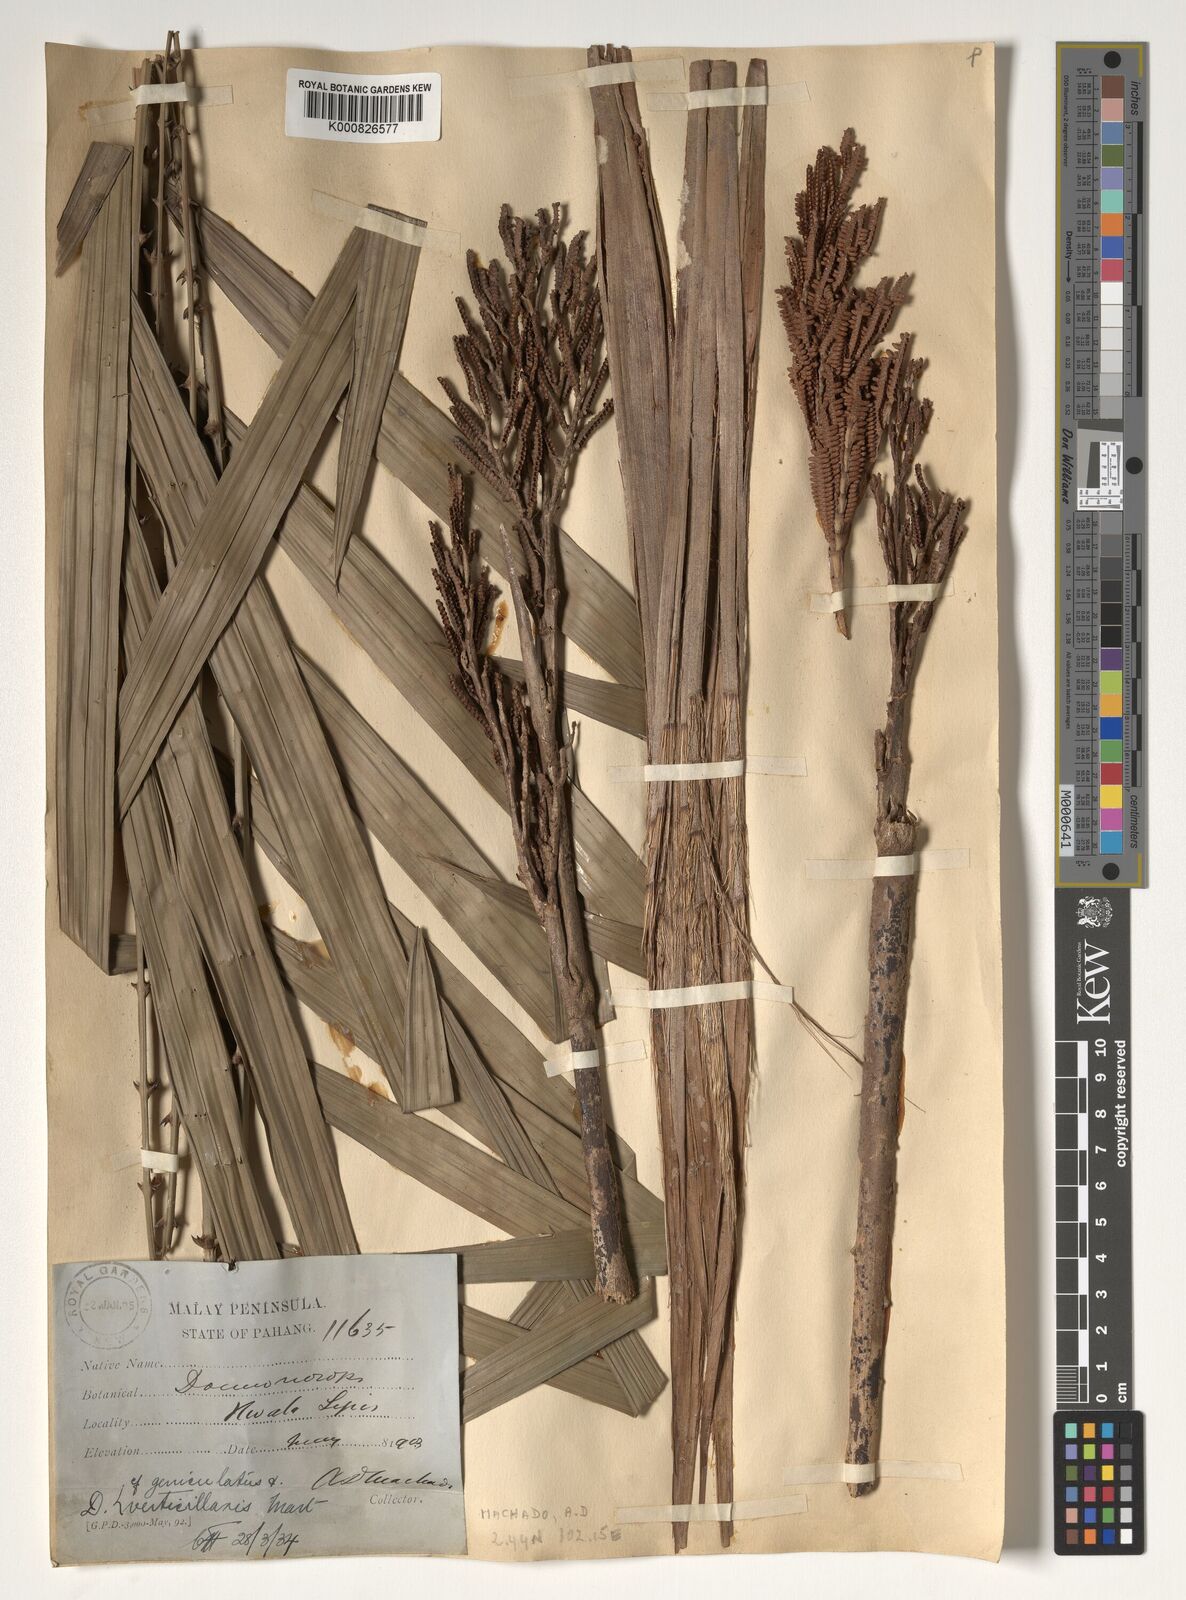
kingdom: Plantae
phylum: Tracheophyta
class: Liliopsida
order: Arecales
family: Arecaceae
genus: Calamus
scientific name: Calamus geniculatus
